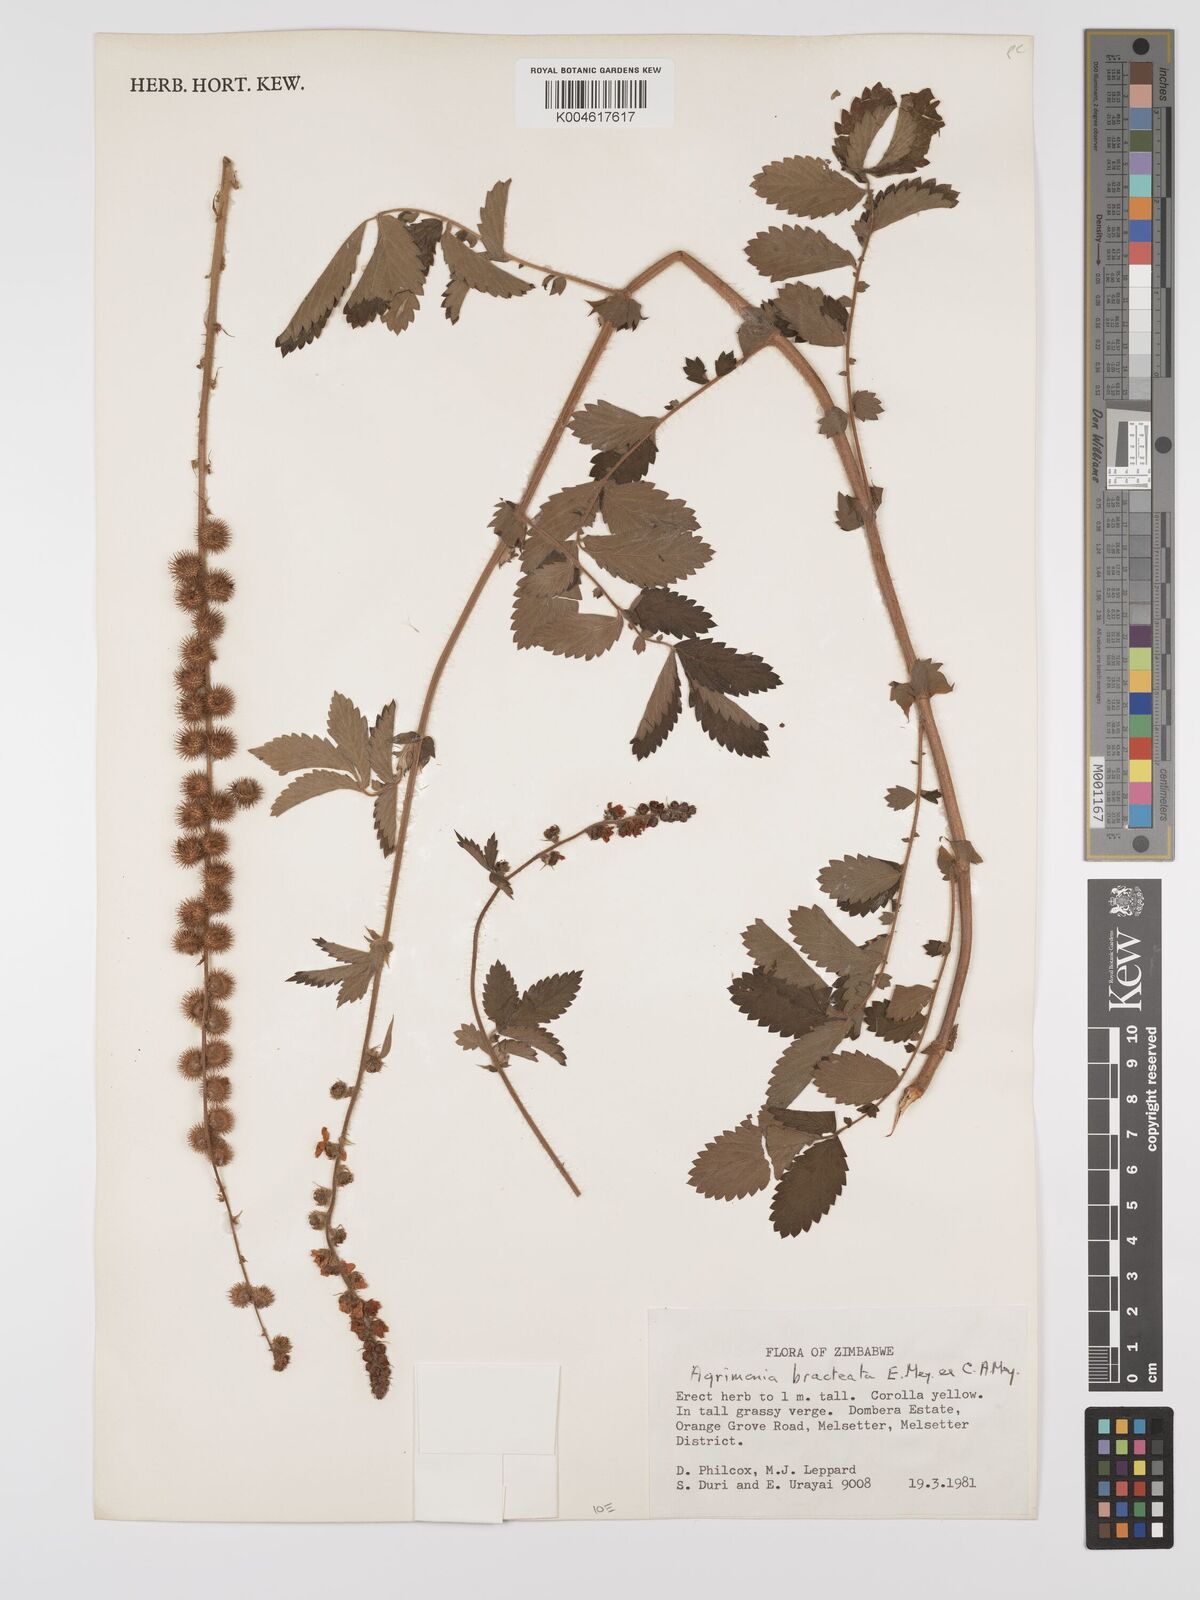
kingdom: Plantae
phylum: Tracheophyta
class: Magnoliopsida
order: Rosales
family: Rosaceae
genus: Agrimonia
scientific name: Agrimonia bracteata
